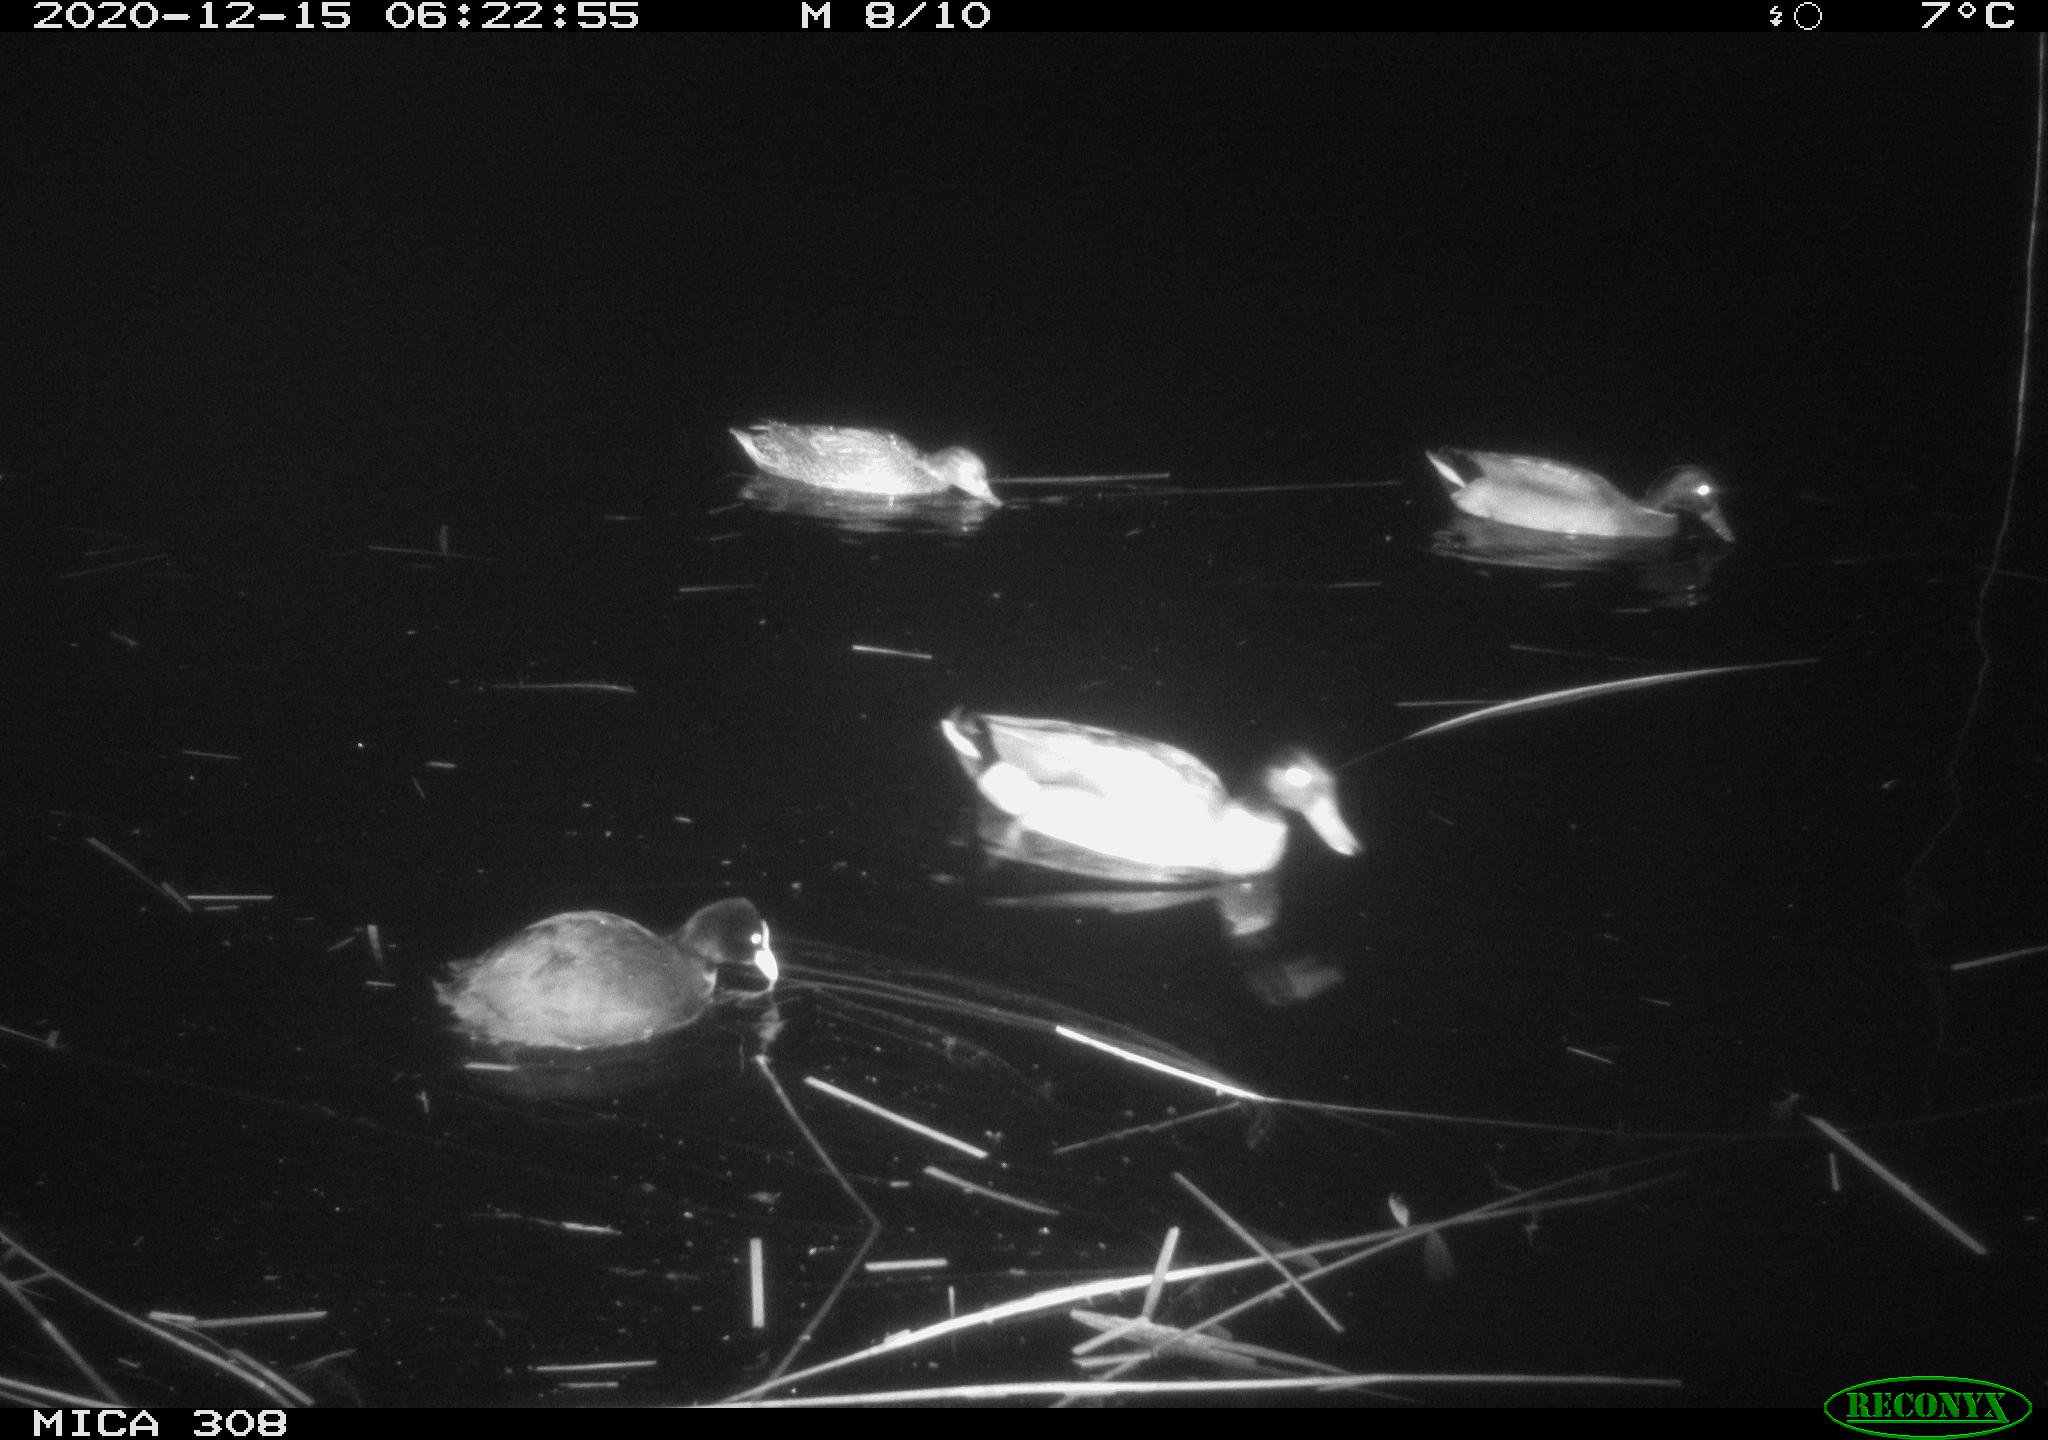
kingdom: Animalia
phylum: Chordata
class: Aves
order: Gruiformes
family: Rallidae
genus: Fulica
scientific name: Fulica atra
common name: Eurasian coot
